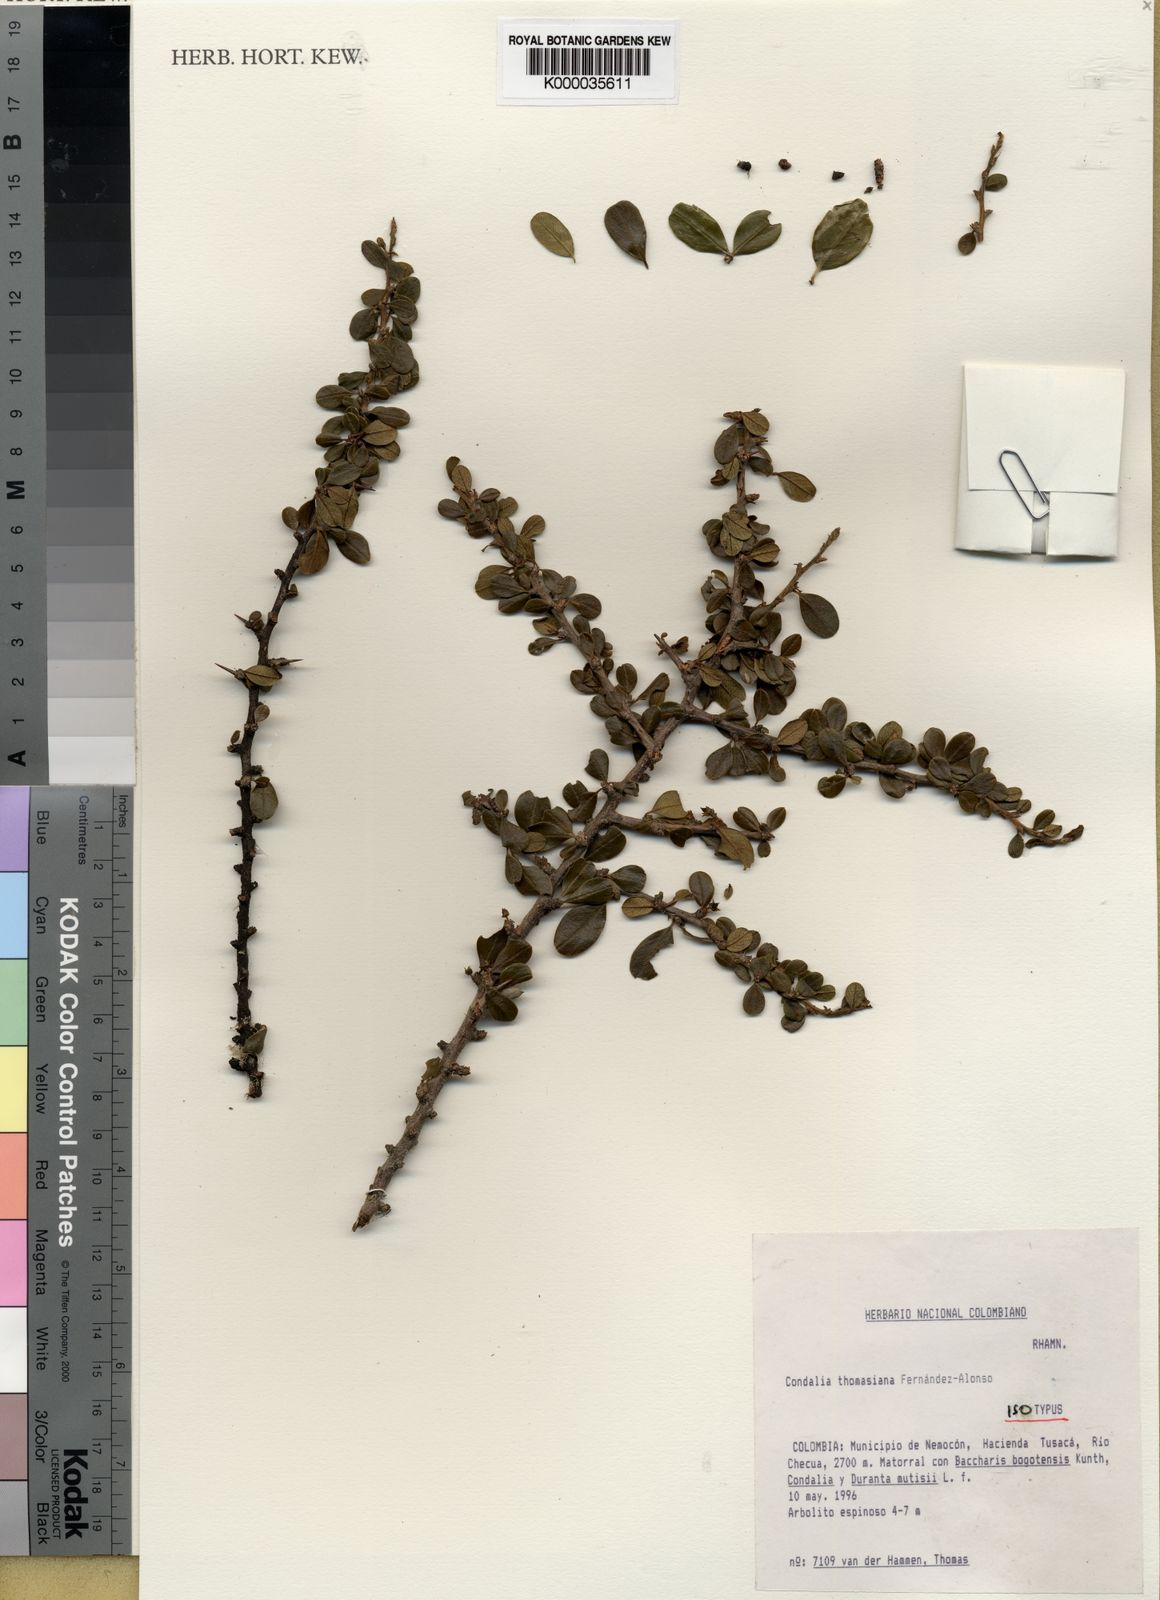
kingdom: Plantae
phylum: Tracheophyta
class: Magnoliopsida
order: Rosales
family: Rhamnaceae
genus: Condalia
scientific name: Condalia
